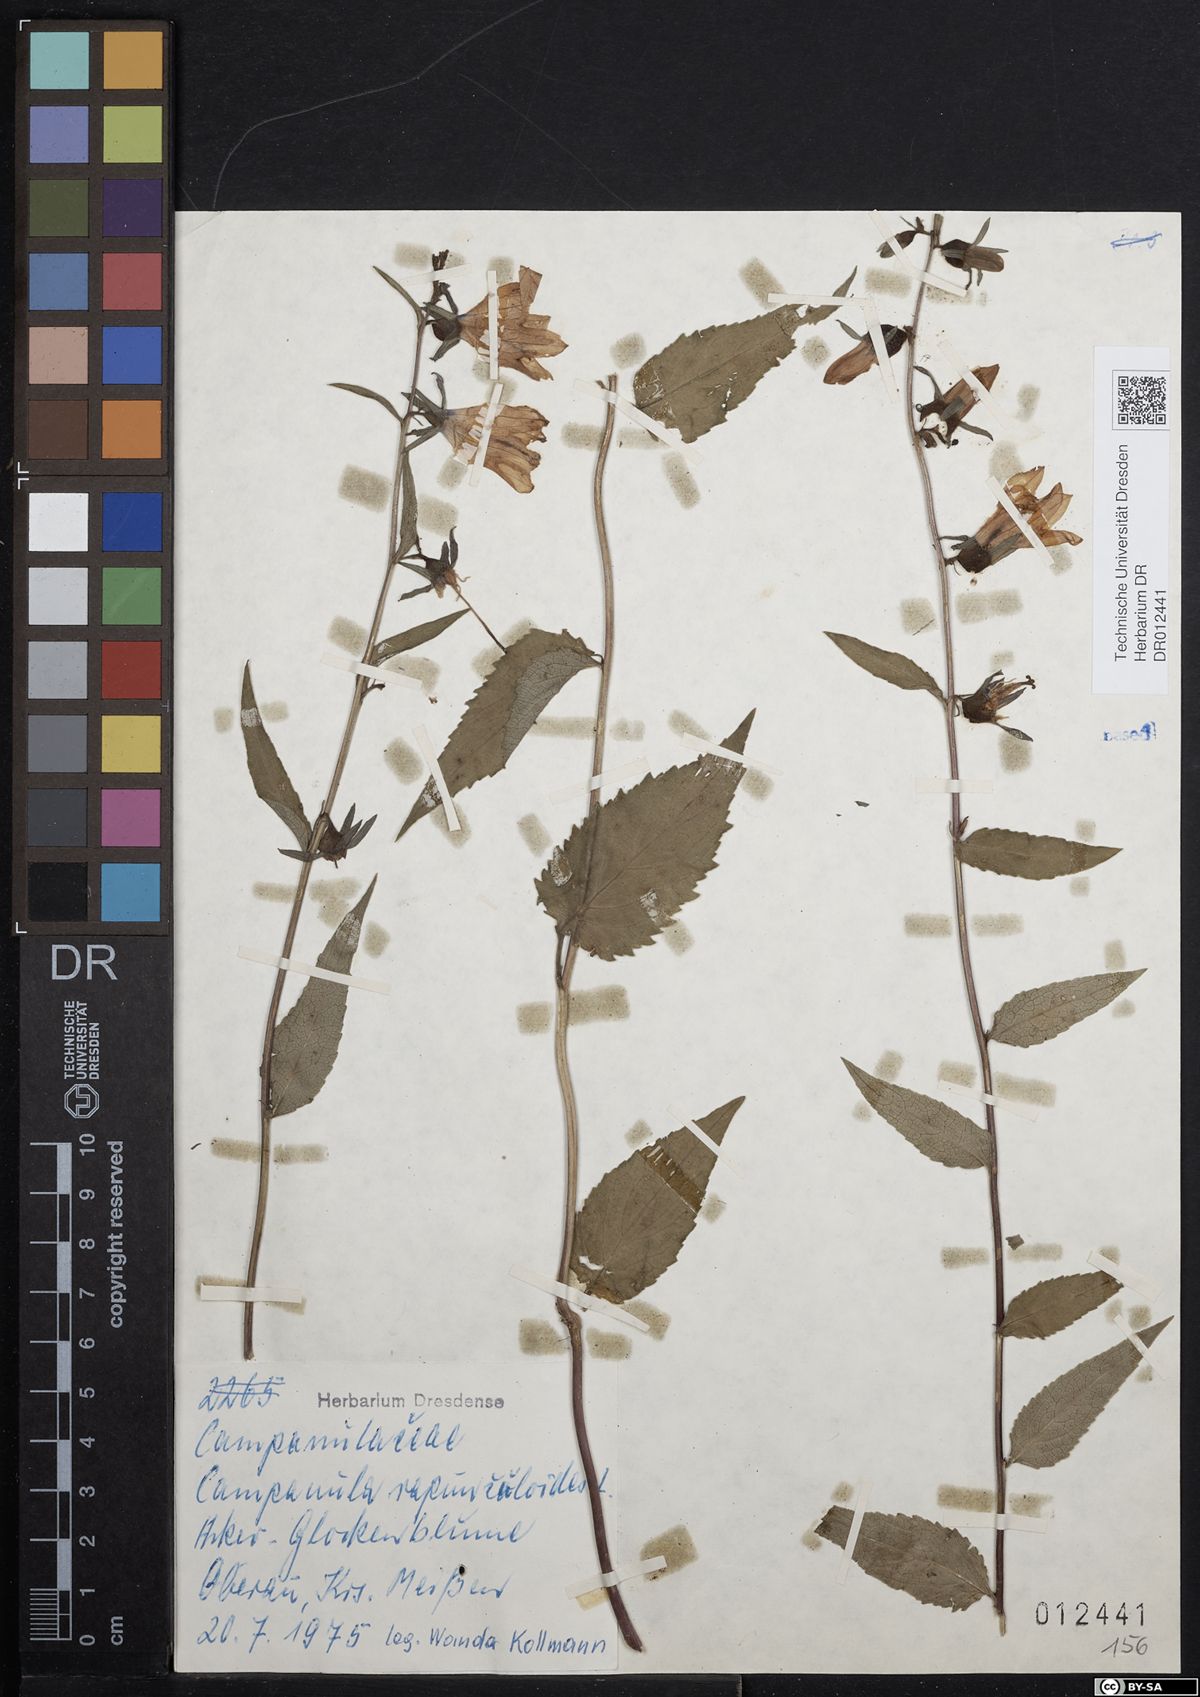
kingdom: Plantae
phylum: Tracheophyta
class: Magnoliopsida
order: Asterales
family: Campanulaceae
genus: Campanula
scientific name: Campanula rapunculoides
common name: Creeping bellflower
